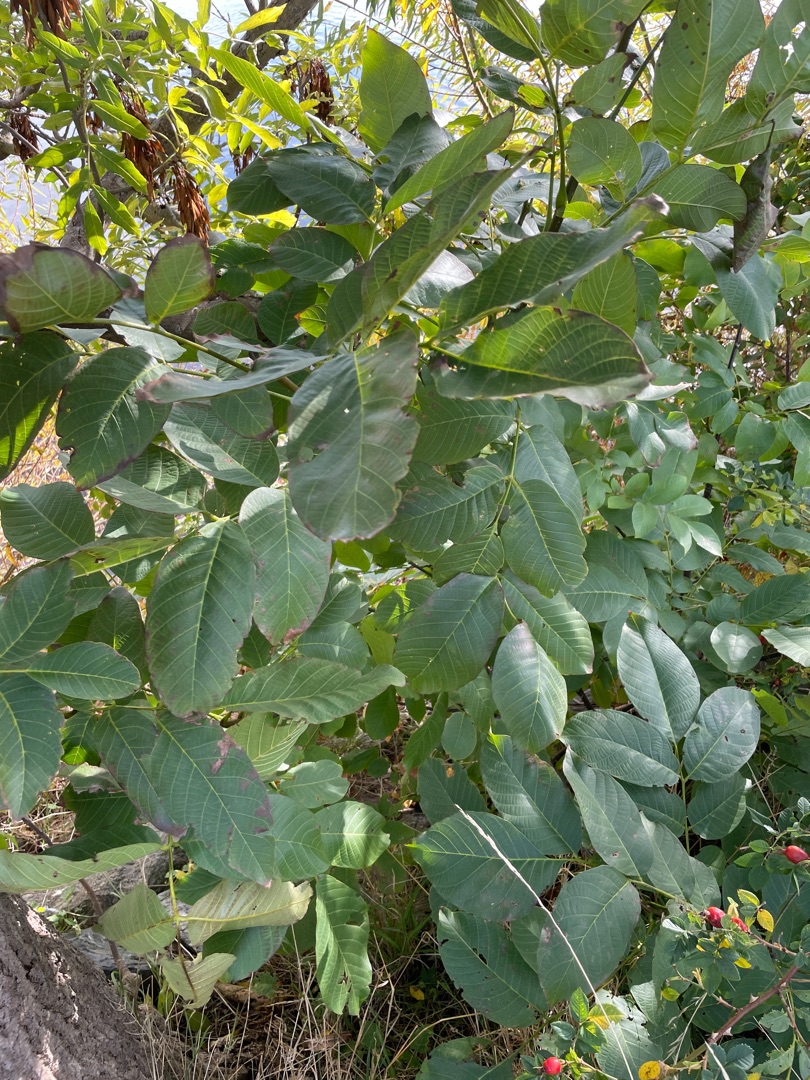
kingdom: Plantae
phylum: Tracheophyta
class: Magnoliopsida
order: Fagales
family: Juglandaceae
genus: Juglans
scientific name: Juglans regia
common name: Almindelig valnød
